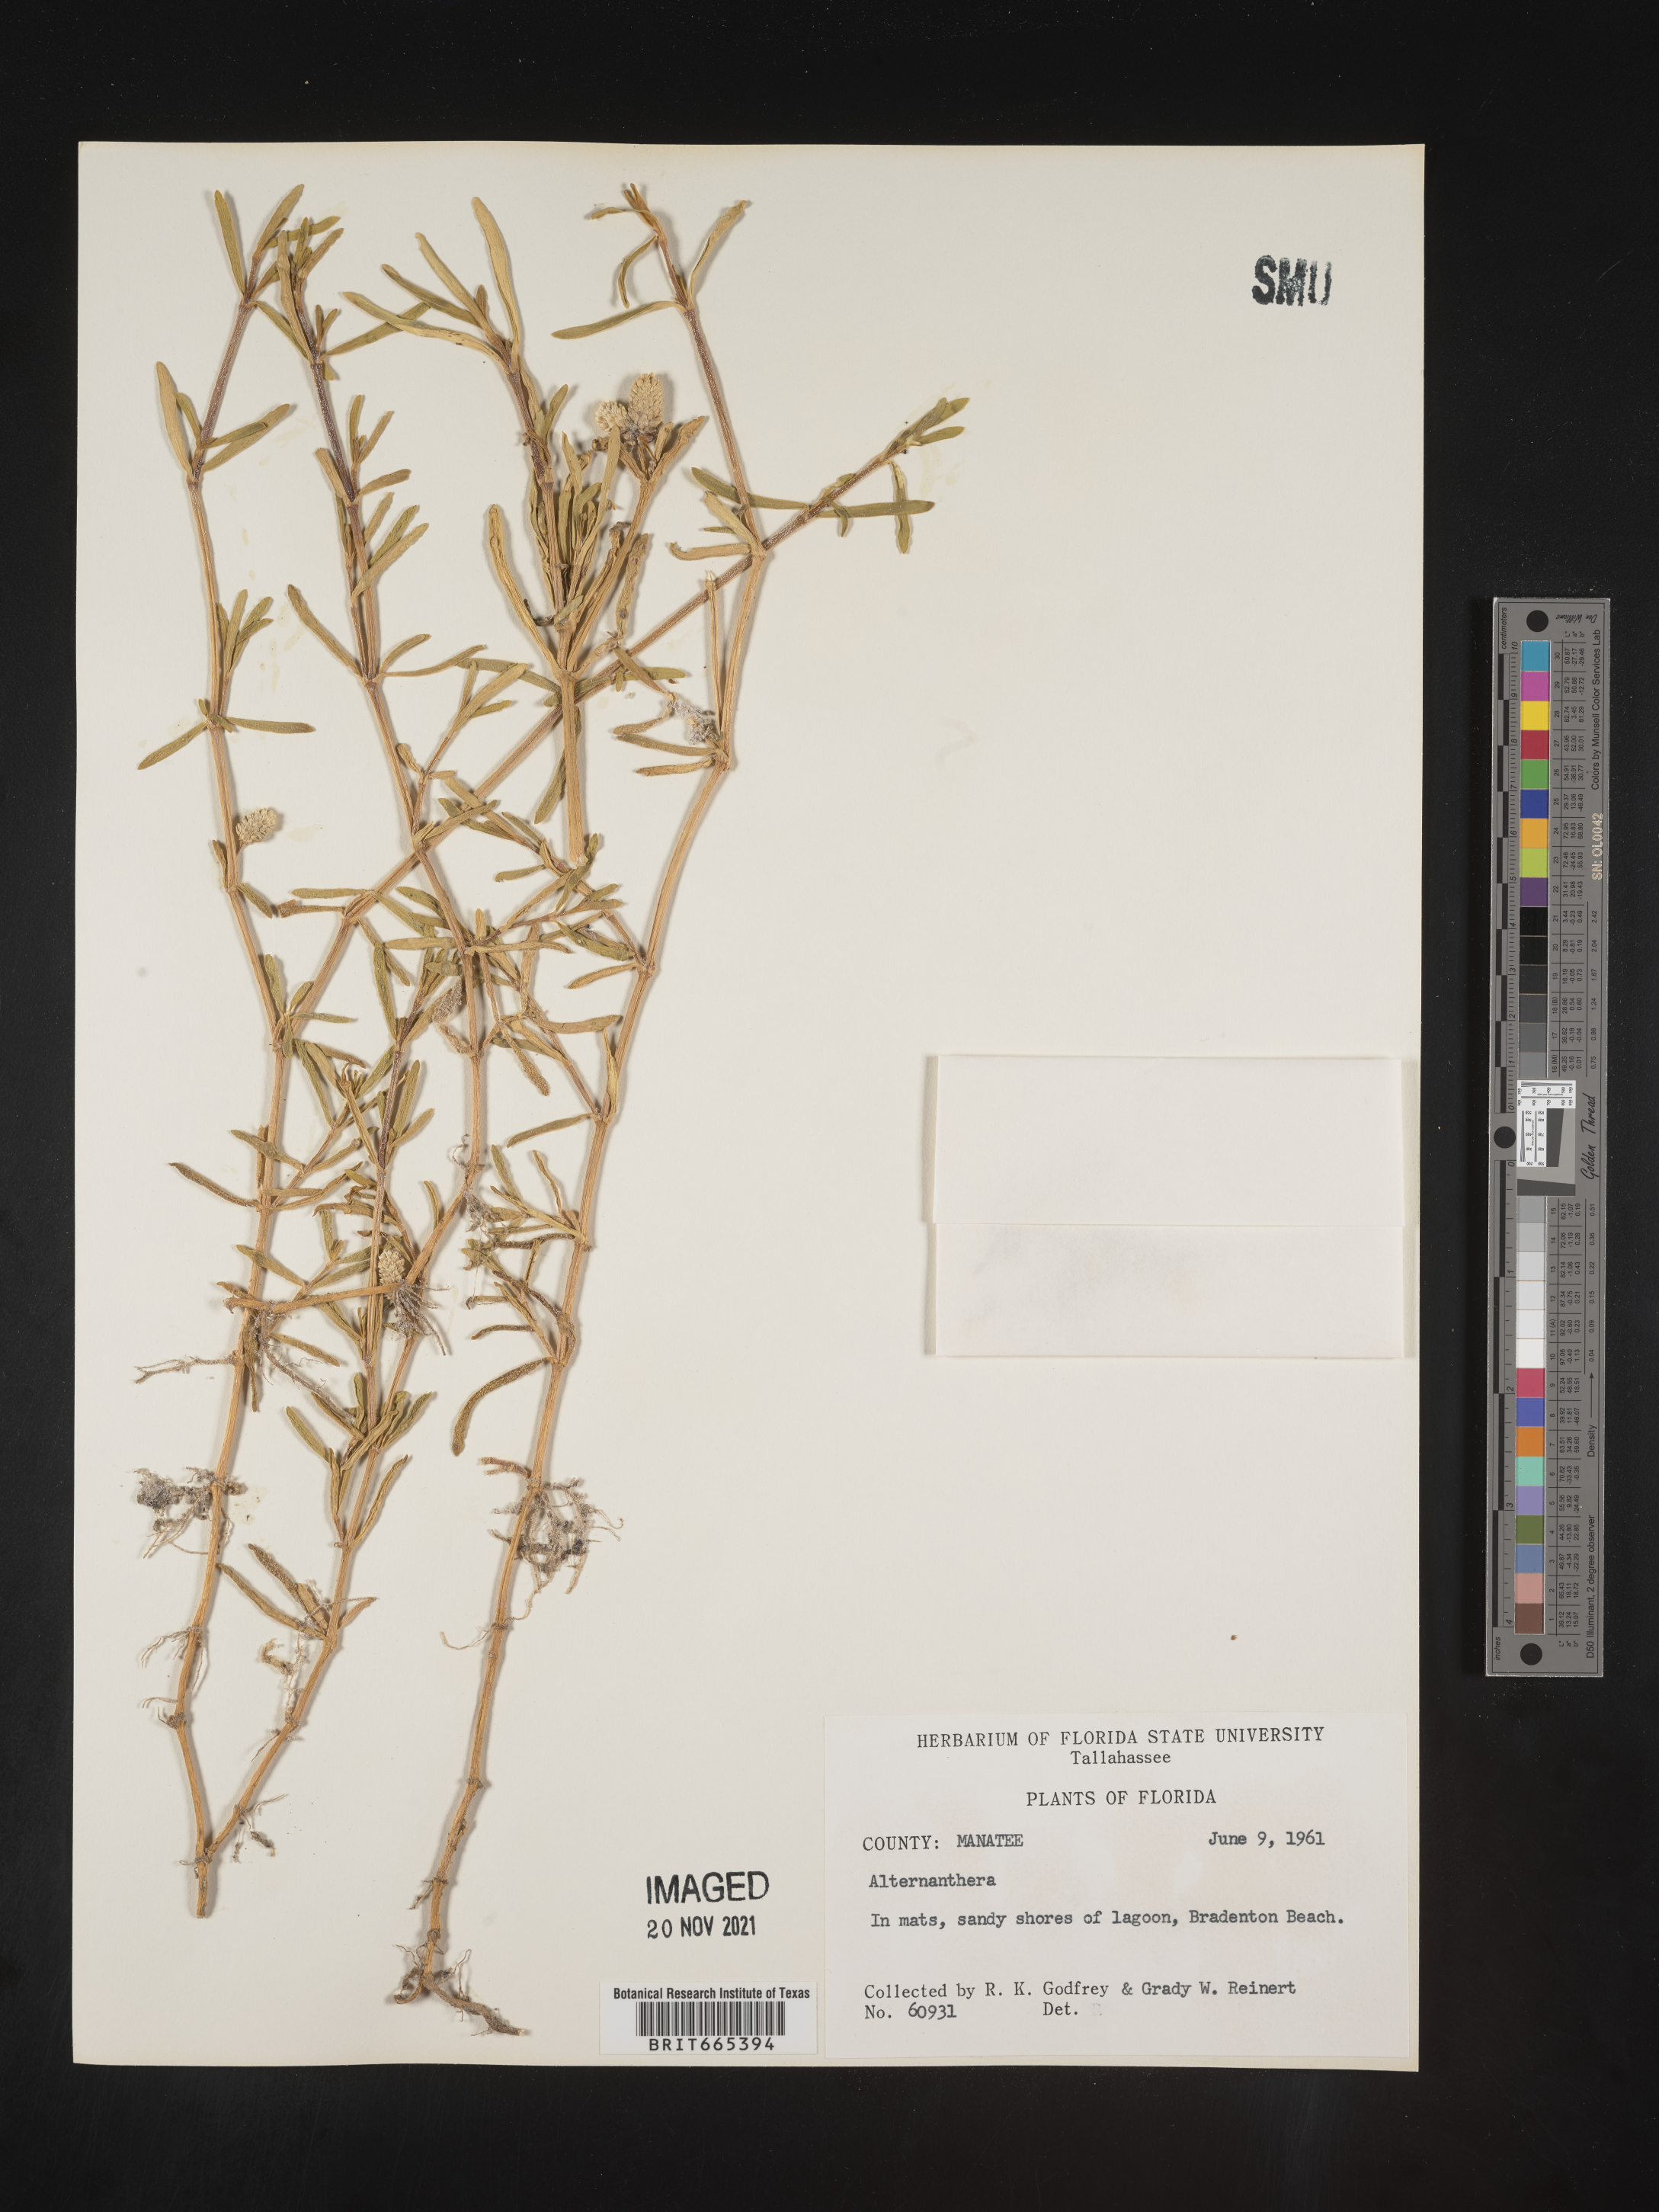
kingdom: Plantae
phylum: Tracheophyta
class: Magnoliopsida
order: Caryophyllales
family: Amaranthaceae
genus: Gomphrena
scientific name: Gomphrena
